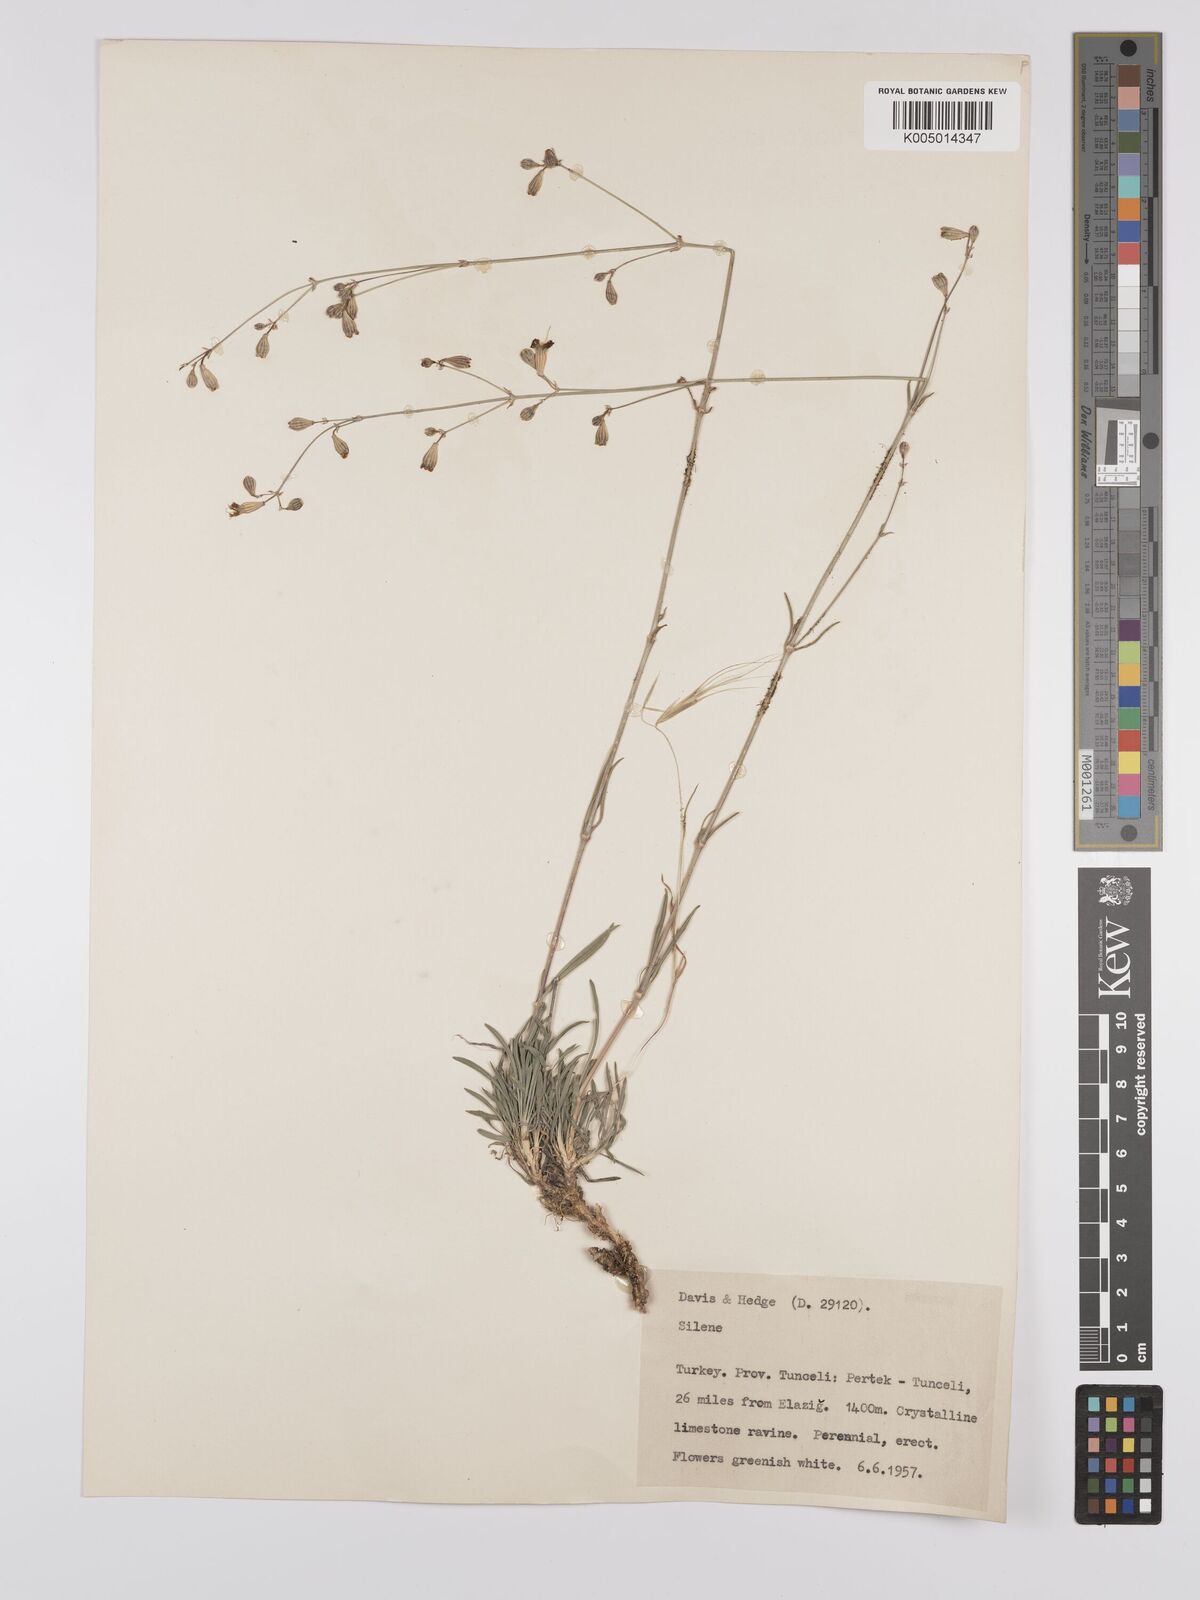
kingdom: Plantae
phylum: Tracheophyta
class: Magnoliopsida
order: Caryophyllales
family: Caryophyllaceae
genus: Silene
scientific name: Silene
